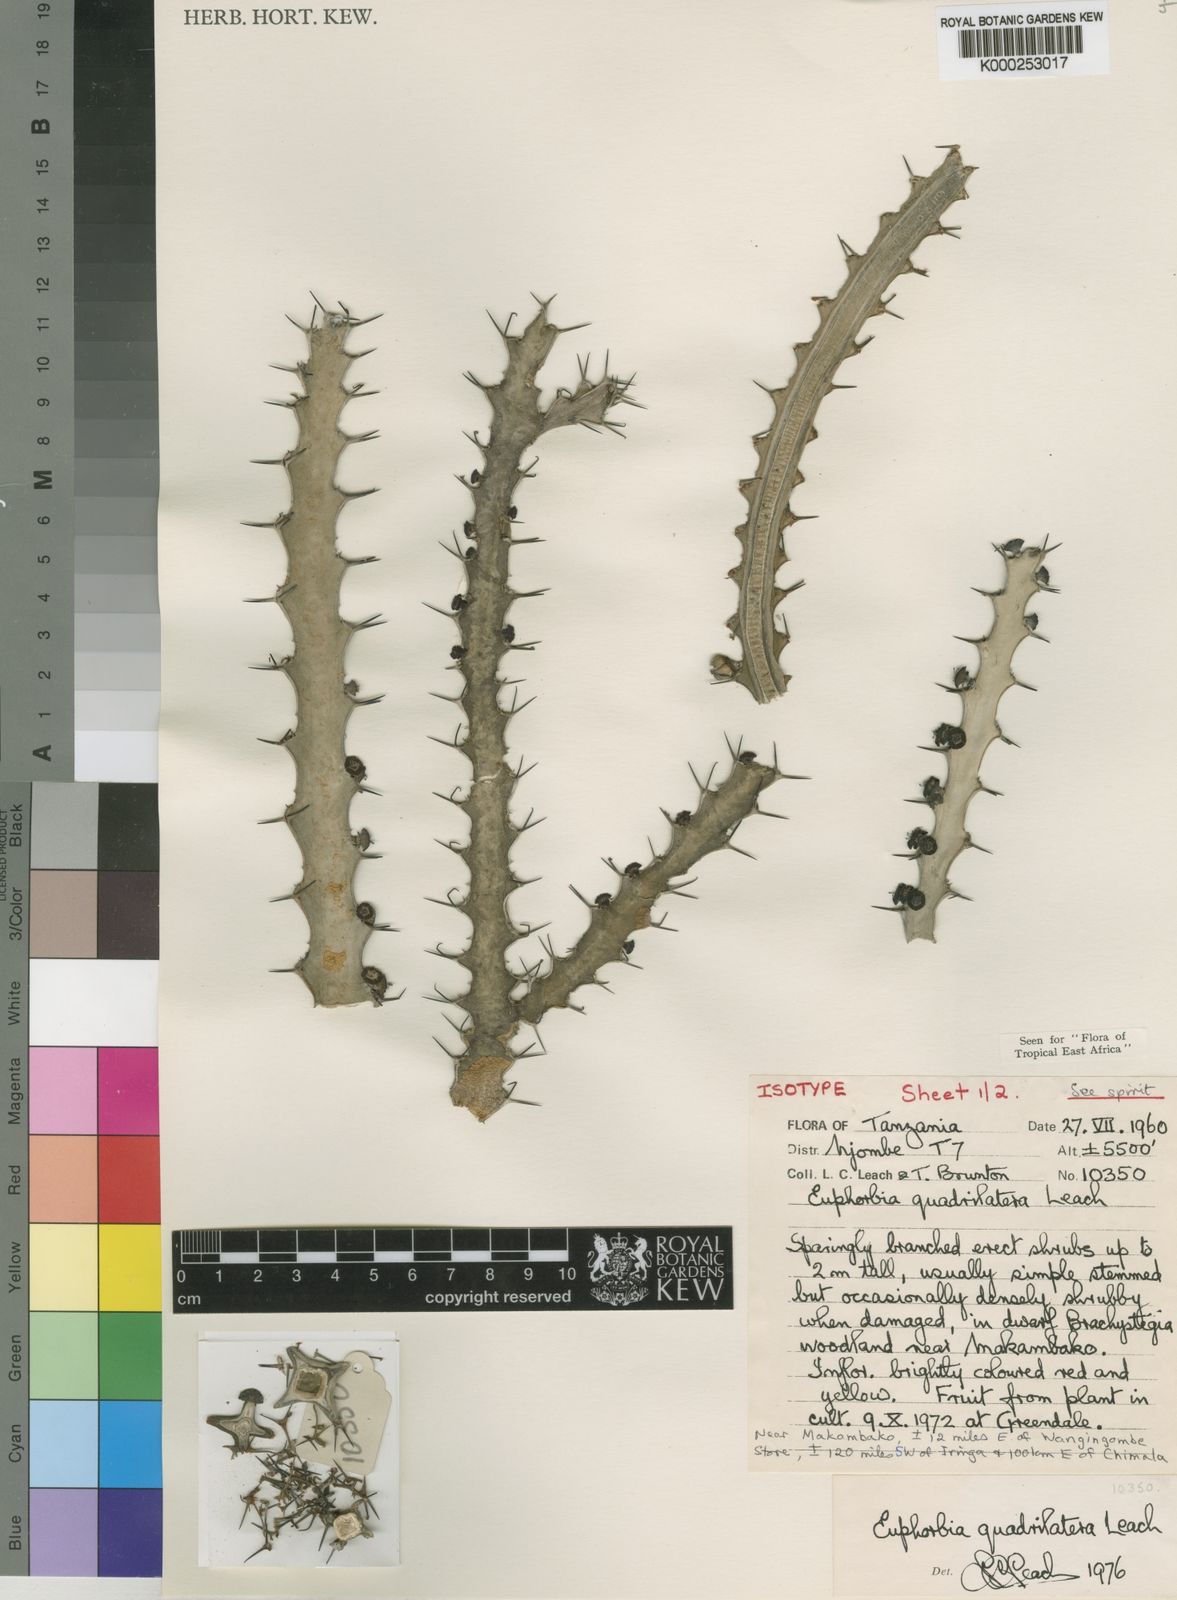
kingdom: Plantae
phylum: Tracheophyta
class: Magnoliopsida
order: Malpighiales
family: Euphorbiaceae
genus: Euphorbia
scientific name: Euphorbia quadrilatera
